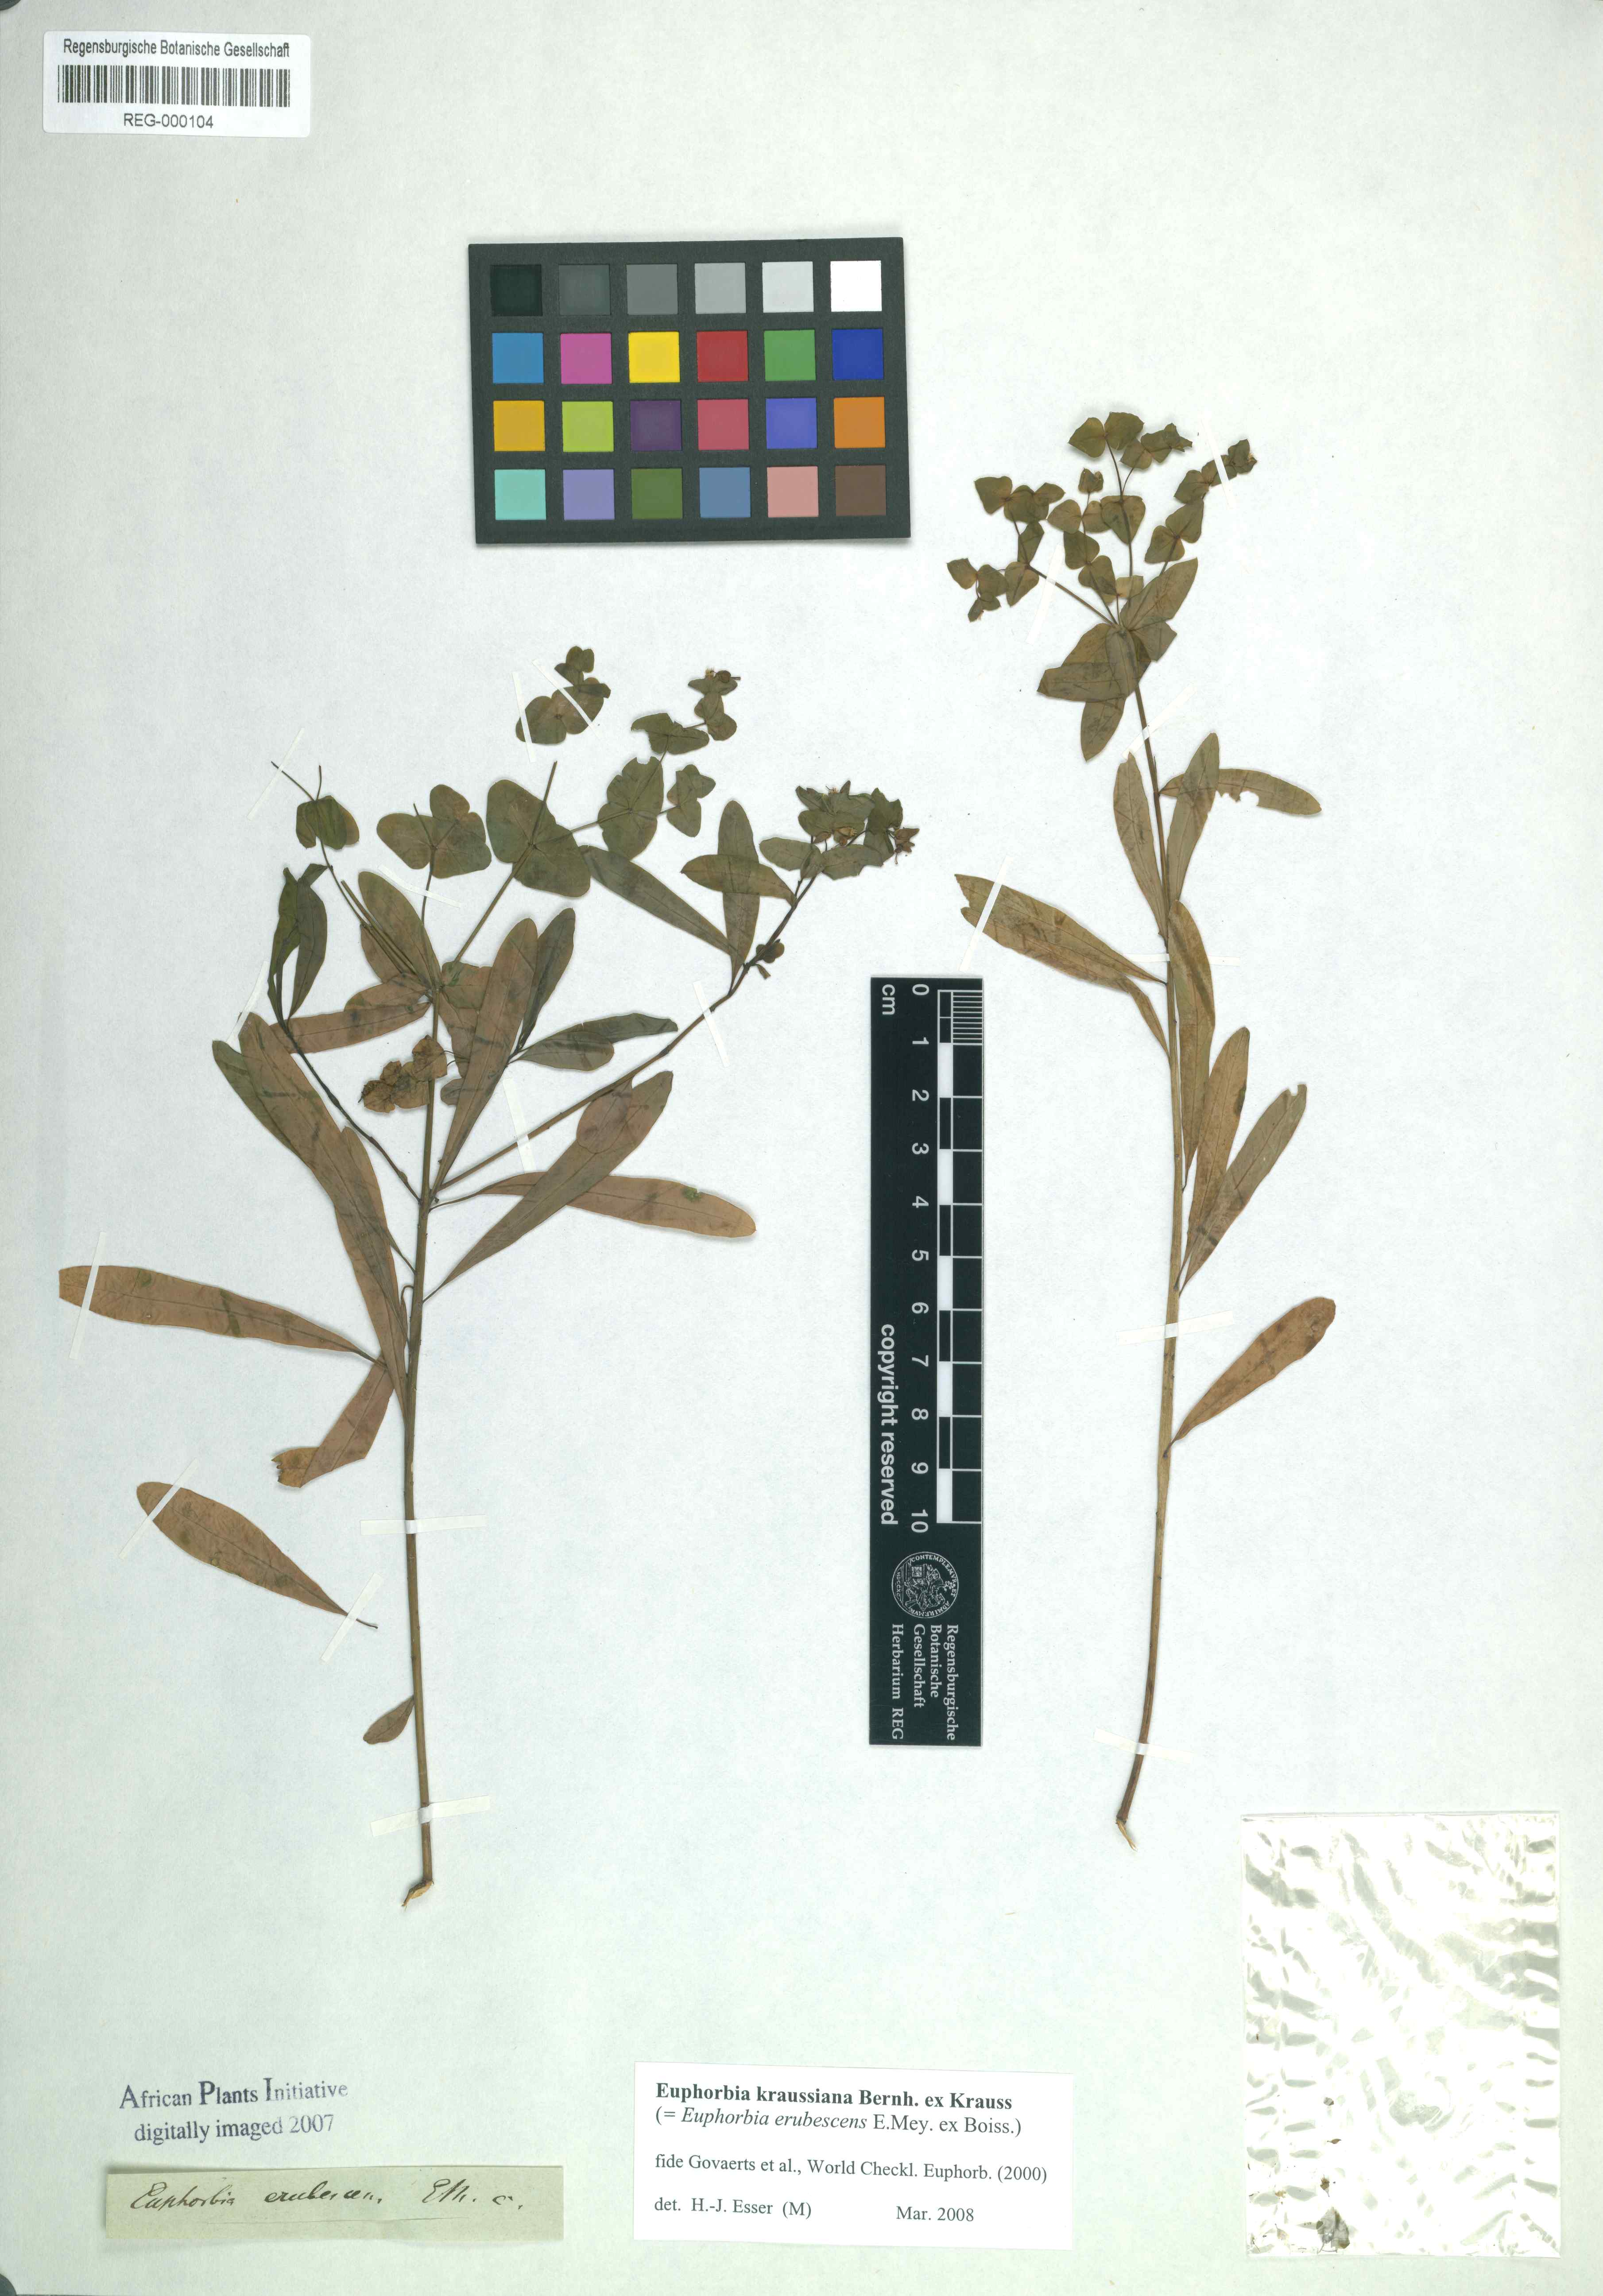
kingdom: Plantae
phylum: Tracheophyta
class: Magnoliopsida
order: Malpighiales
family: Euphorbiaceae
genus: Euphorbia
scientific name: Euphorbia kraussiana
